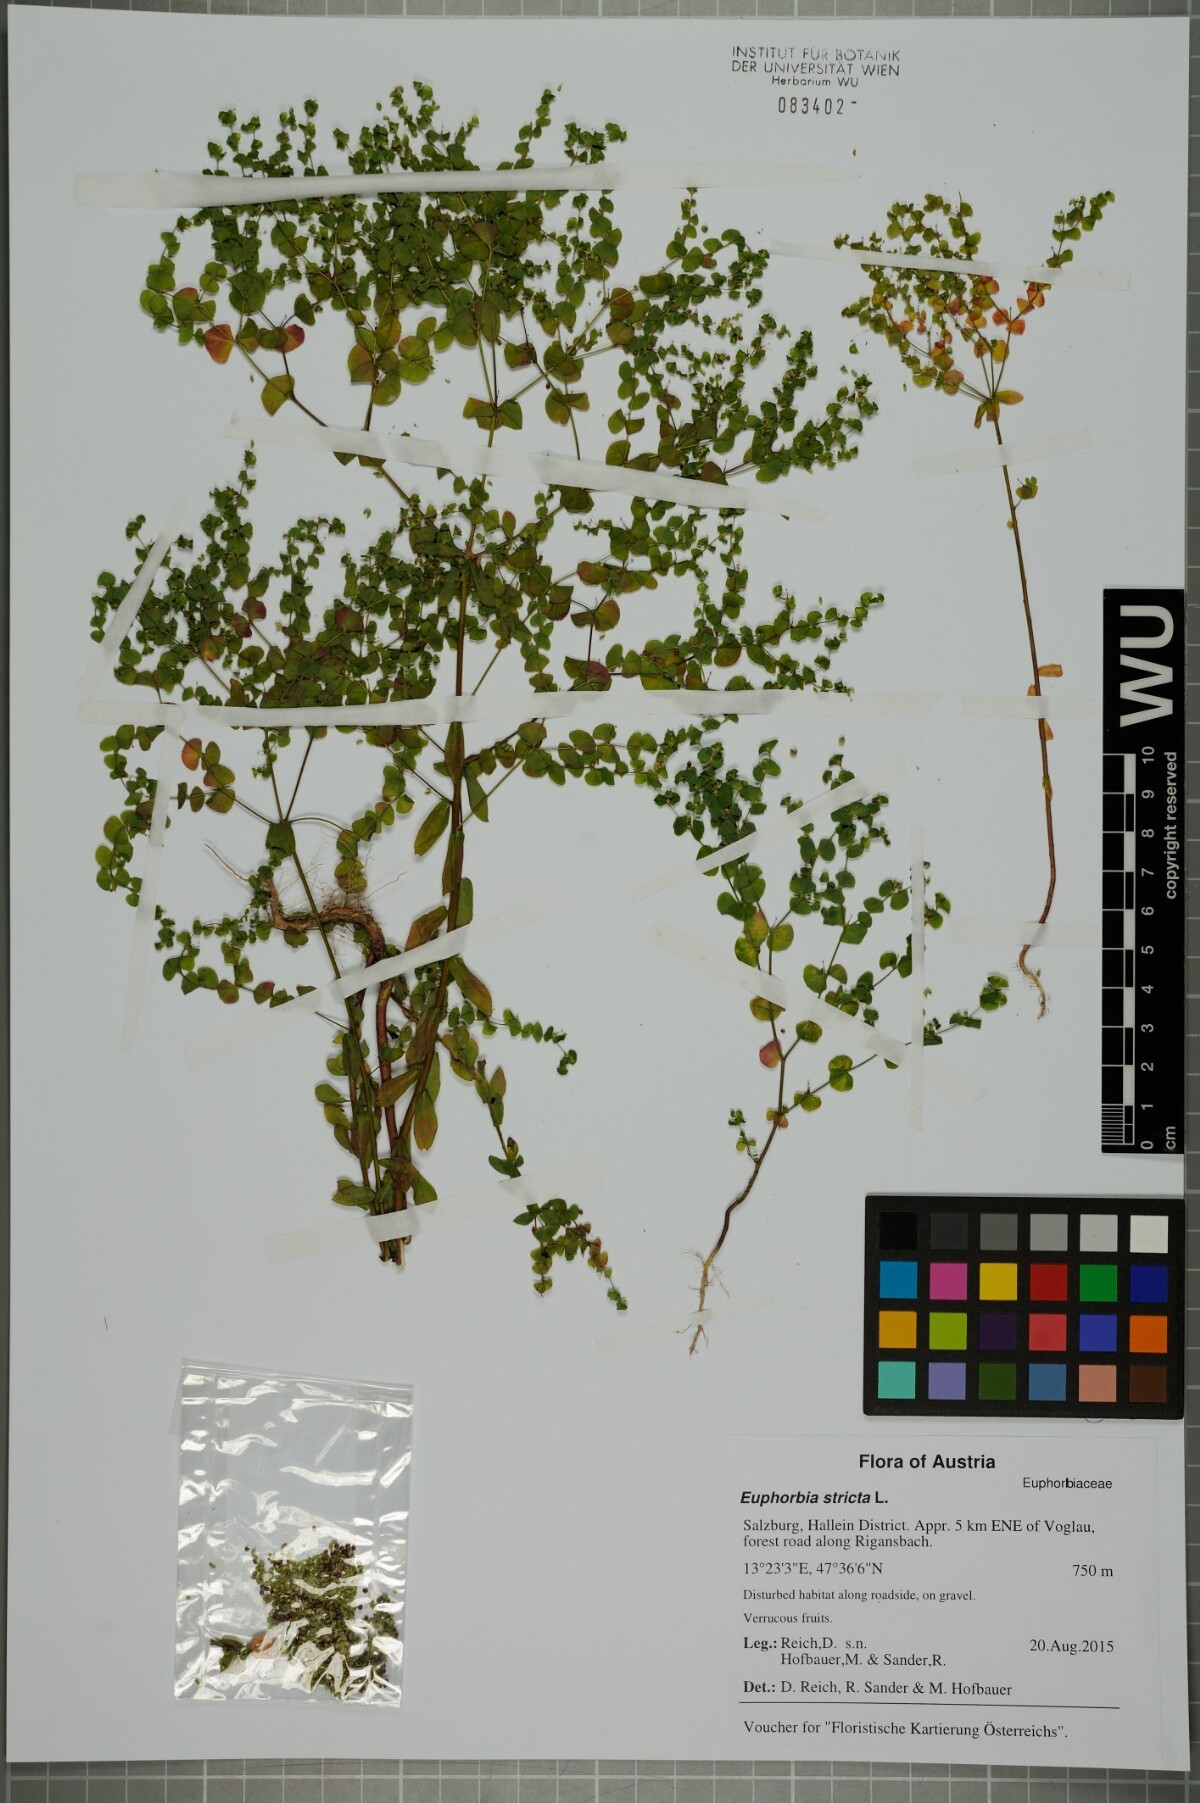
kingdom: Plantae
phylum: Tracheophyta
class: Magnoliopsida
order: Malpighiales
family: Euphorbiaceae
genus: Euphorbia
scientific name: Euphorbia stricta
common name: Upright spurge
